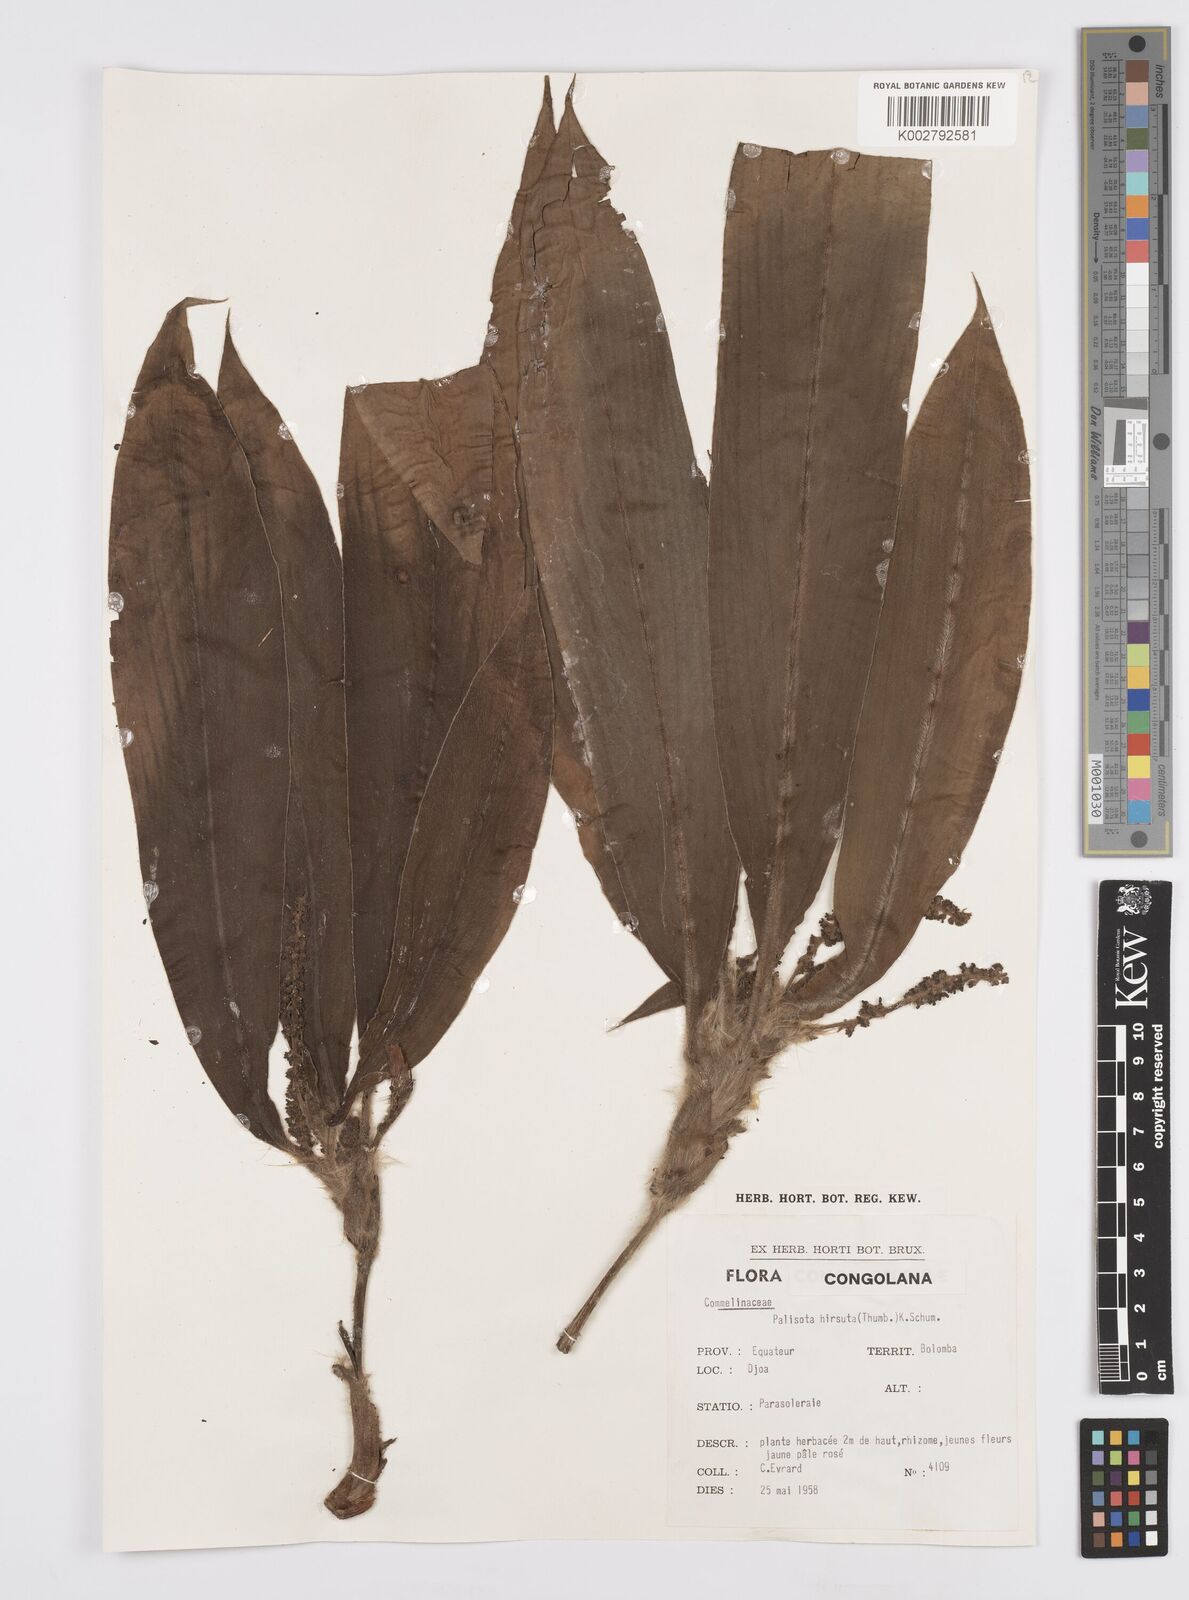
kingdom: Plantae
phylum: Tracheophyta
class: Liliopsida
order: Commelinales
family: Commelinaceae
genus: Palisota
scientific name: Palisota hirsuta
